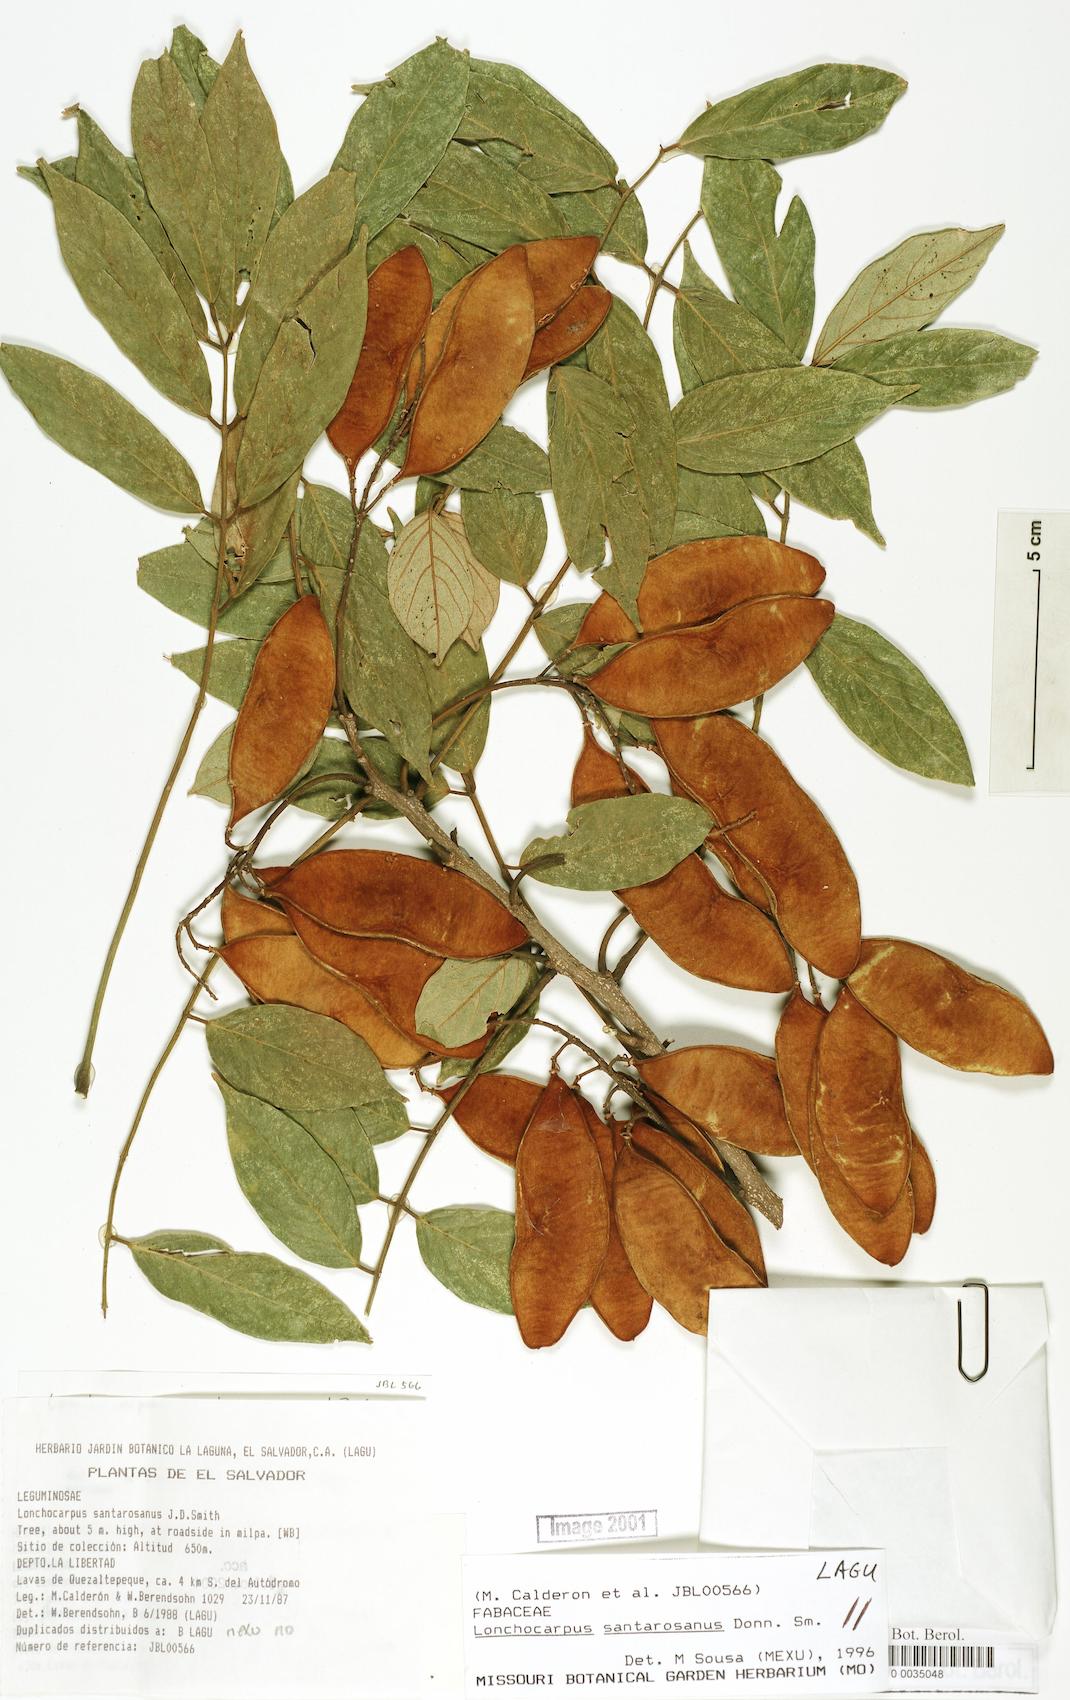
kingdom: Plantae
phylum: Tracheophyta
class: Magnoliopsida
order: Fabales
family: Fabaceae
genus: Lonchocarpus
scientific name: Lonchocarpus santarosanus
